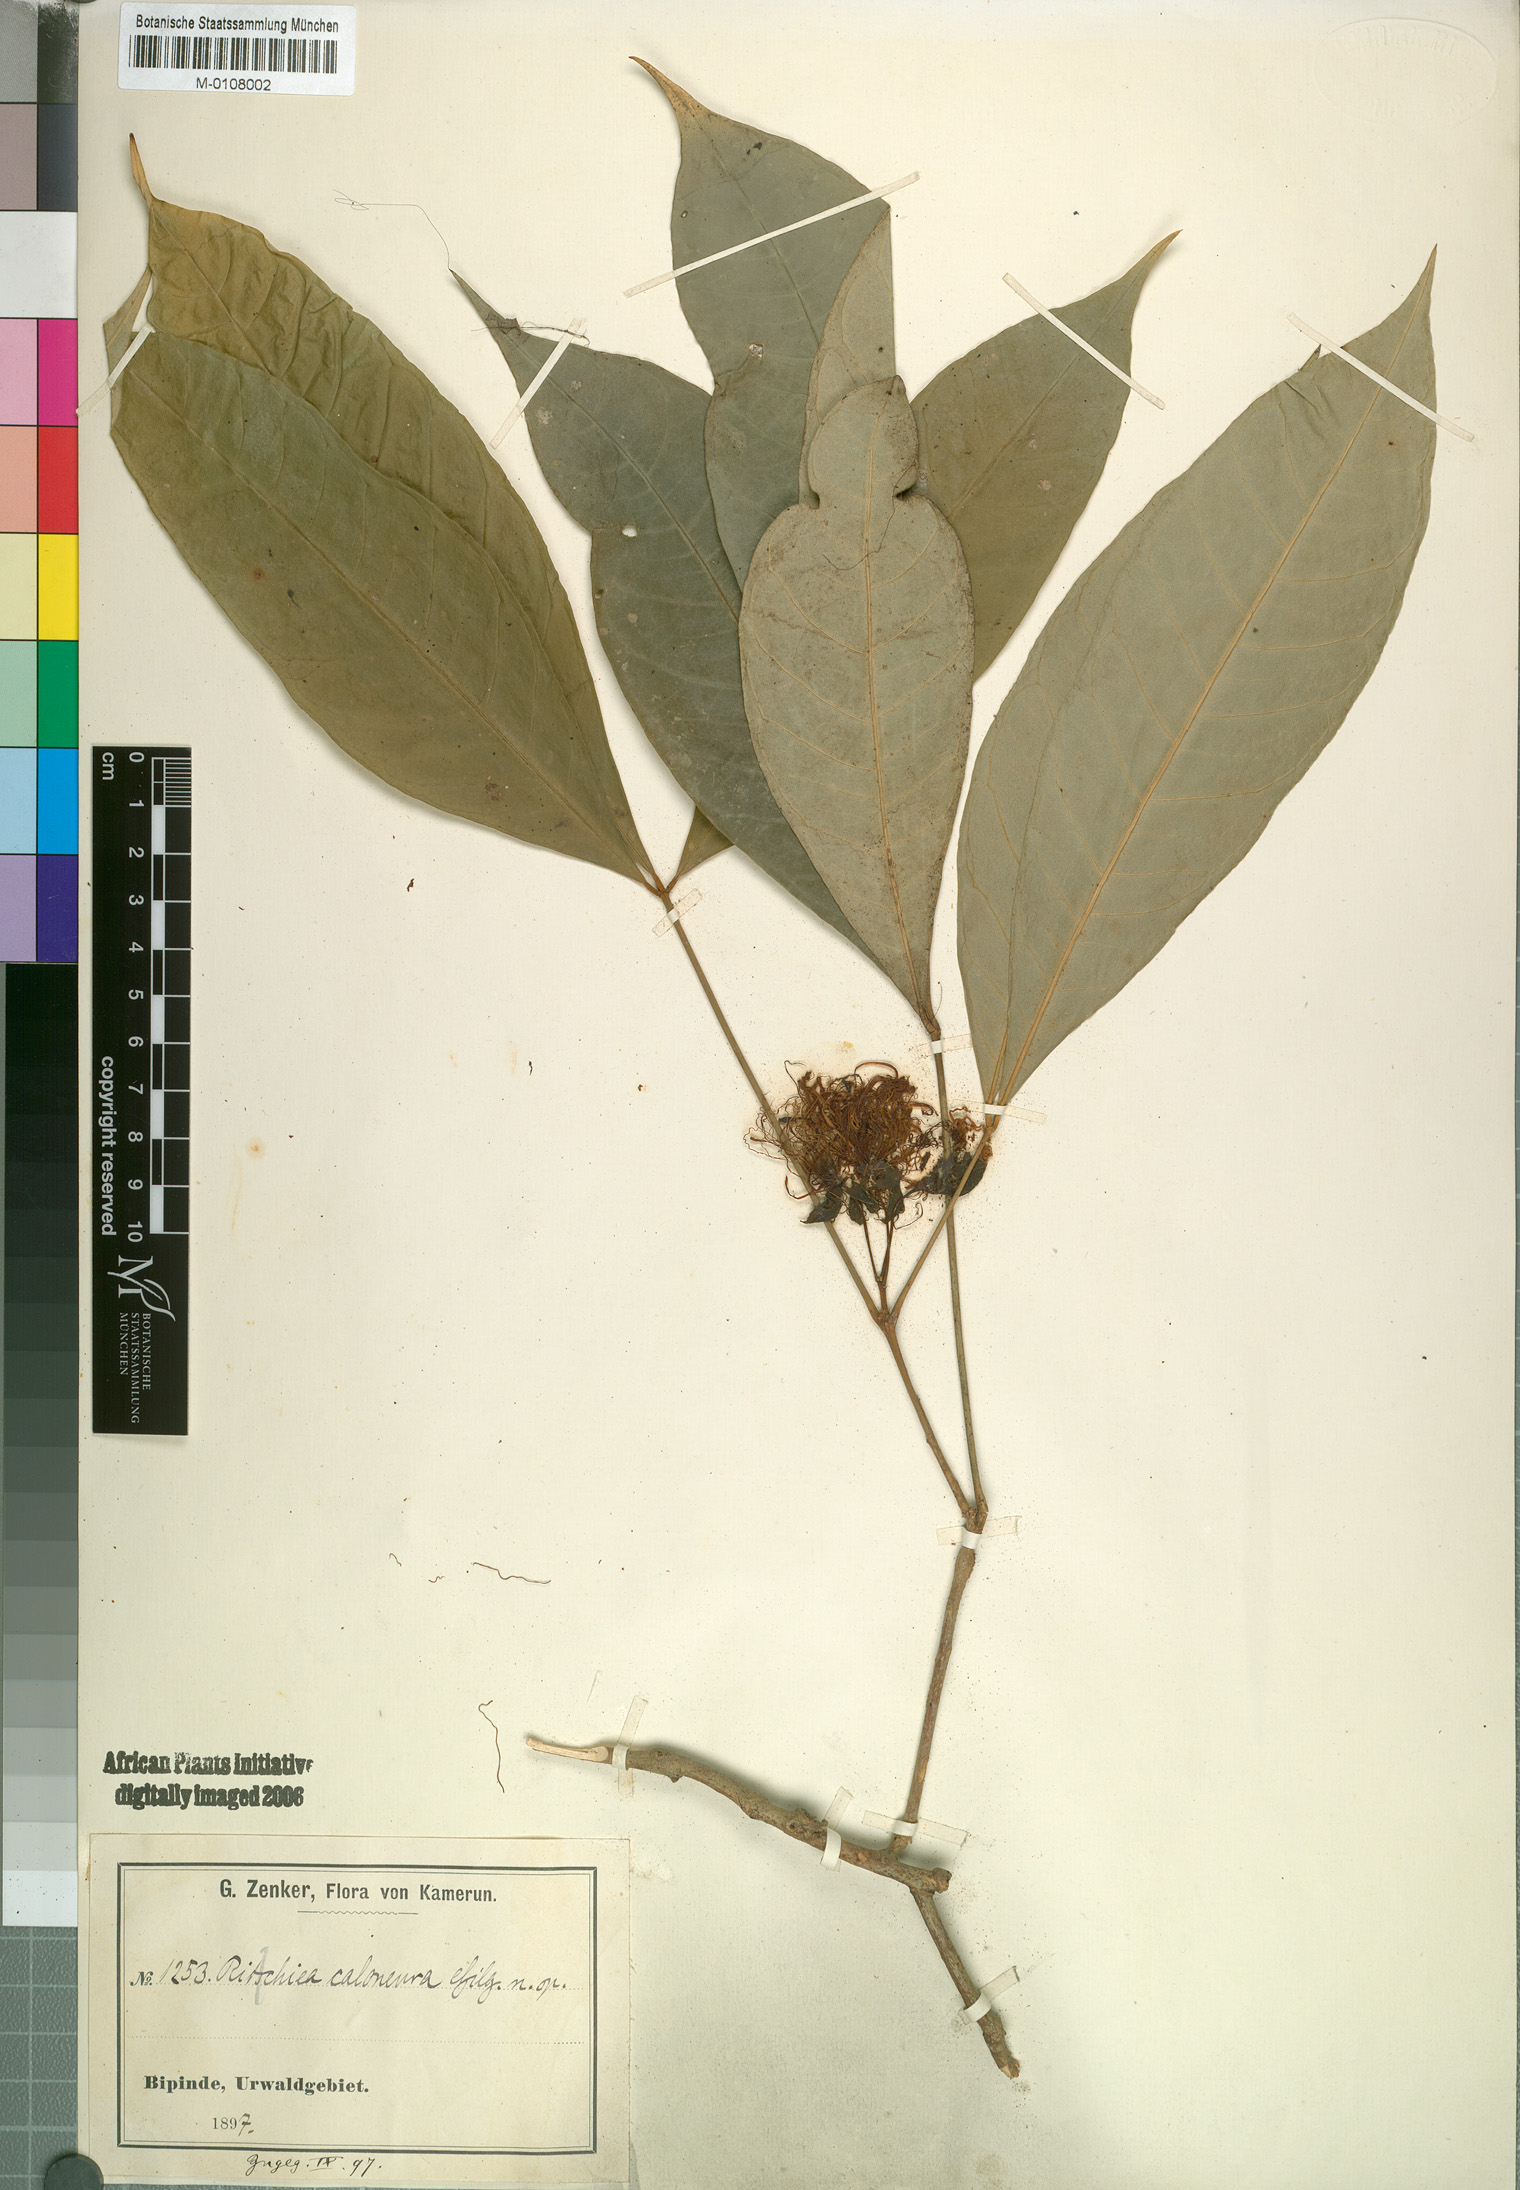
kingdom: Plantae
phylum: Tracheophyta
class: Magnoliopsida
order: Brassicales
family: Capparaceae
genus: Ritchiea
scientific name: Ritchiea simplicifolia
